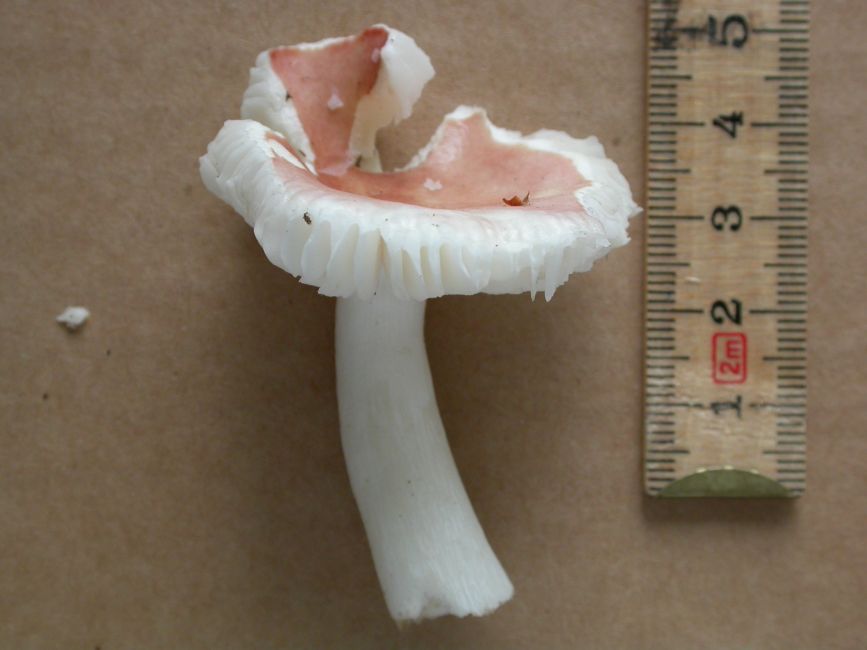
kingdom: Fungi
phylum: Basidiomycota
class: Agaricomycetes
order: Russulales
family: Russulaceae
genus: Russula
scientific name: Russula fragilis
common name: Fragile brittlegill
